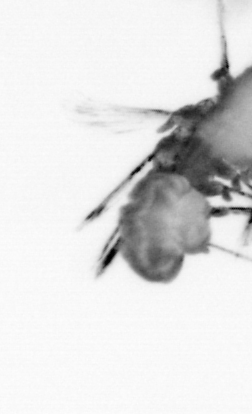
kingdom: Animalia
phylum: Annelida
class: Polychaeta
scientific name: Polychaeta
